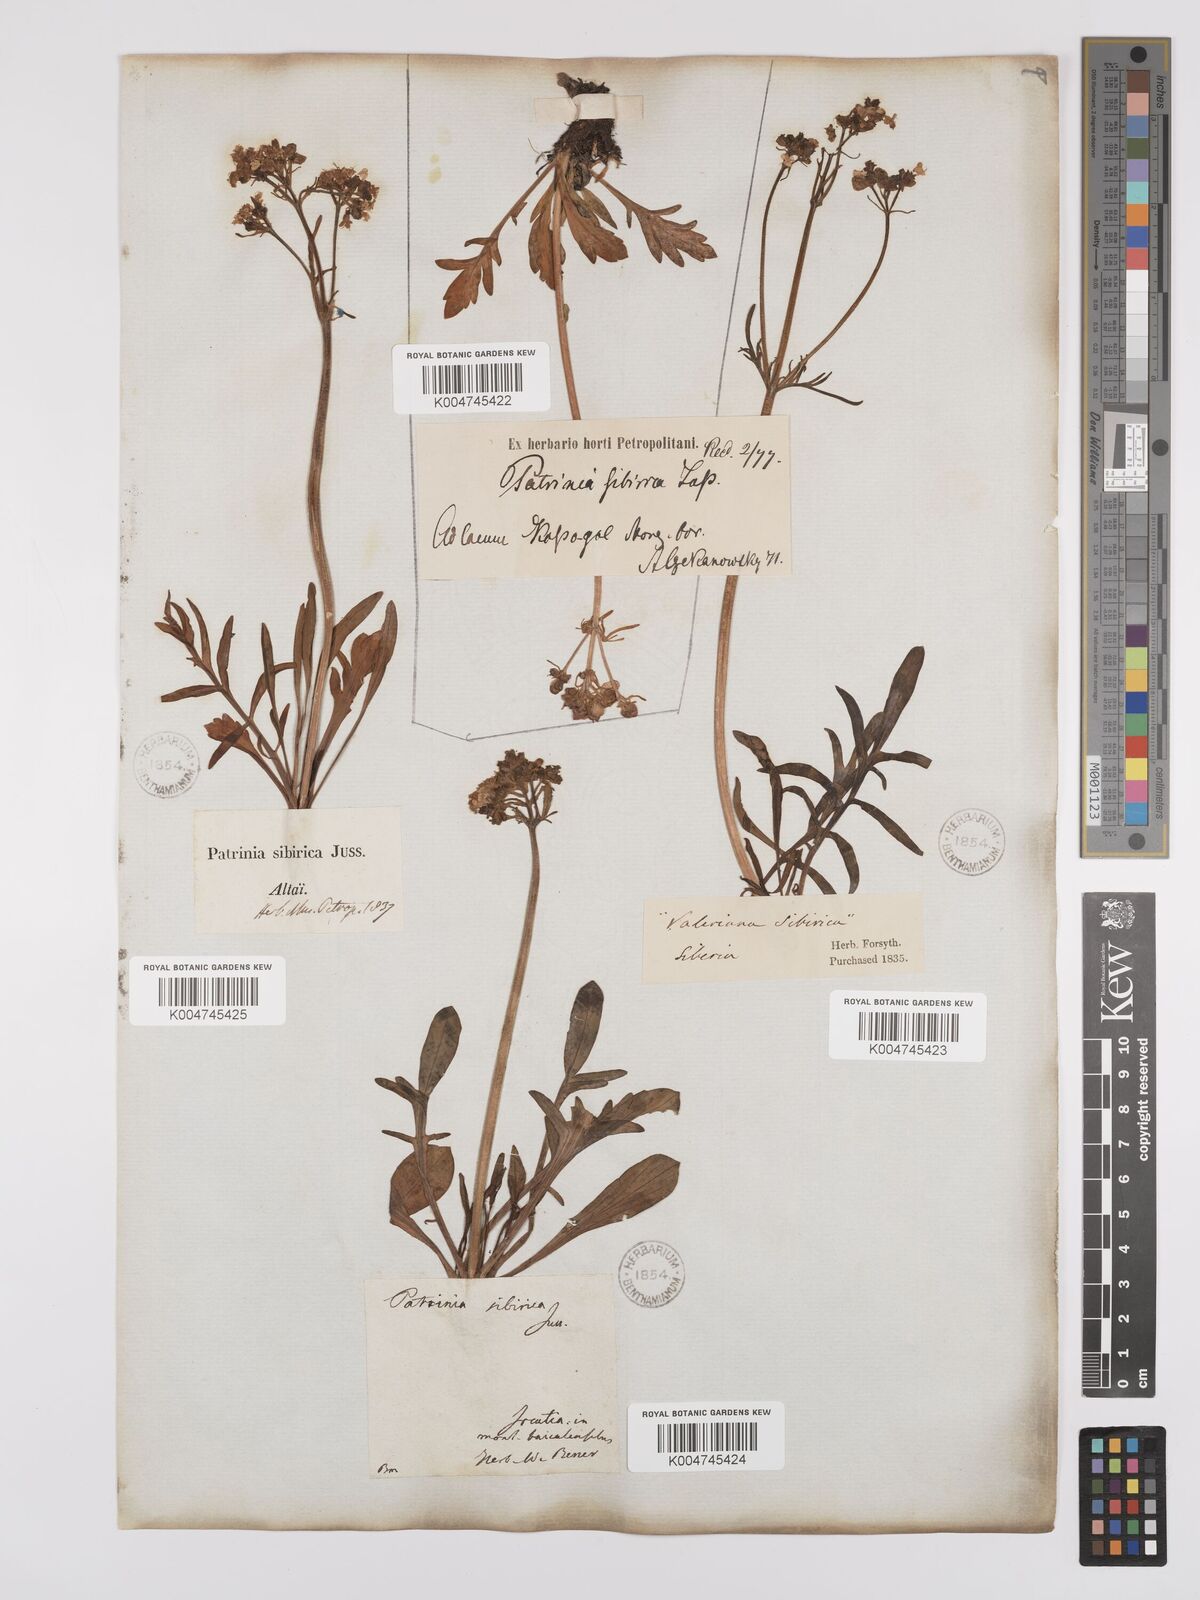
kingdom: Plantae
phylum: Tracheophyta
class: Magnoliopsida
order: Dipsacales
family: Caprifoliaceae
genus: Patrinia
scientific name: Patrinia sibirica
